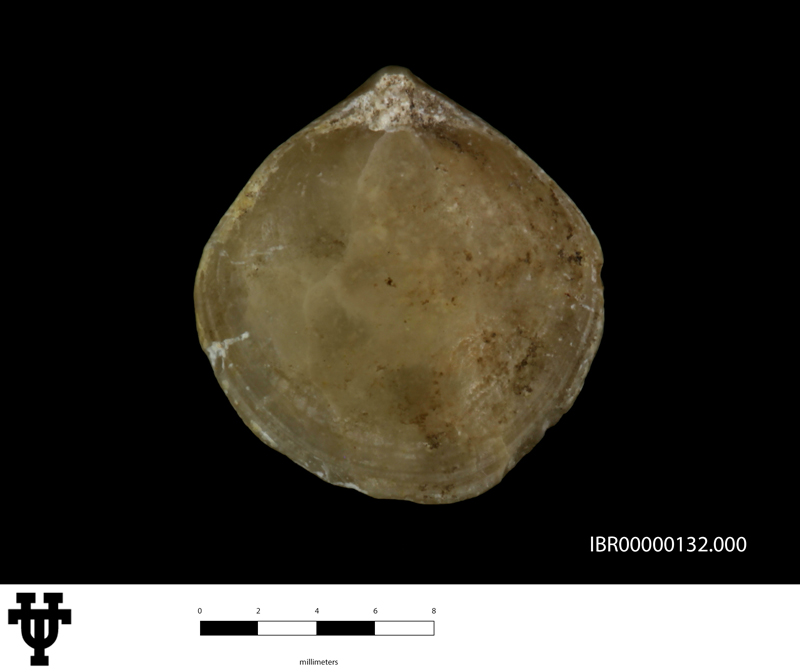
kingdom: Animalia
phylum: Brachiopoda
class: Rhynchonellata
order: Terebratulida
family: Cancellothyrididae
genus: Cruralina
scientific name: Cruralina Terebratula guadalupae
